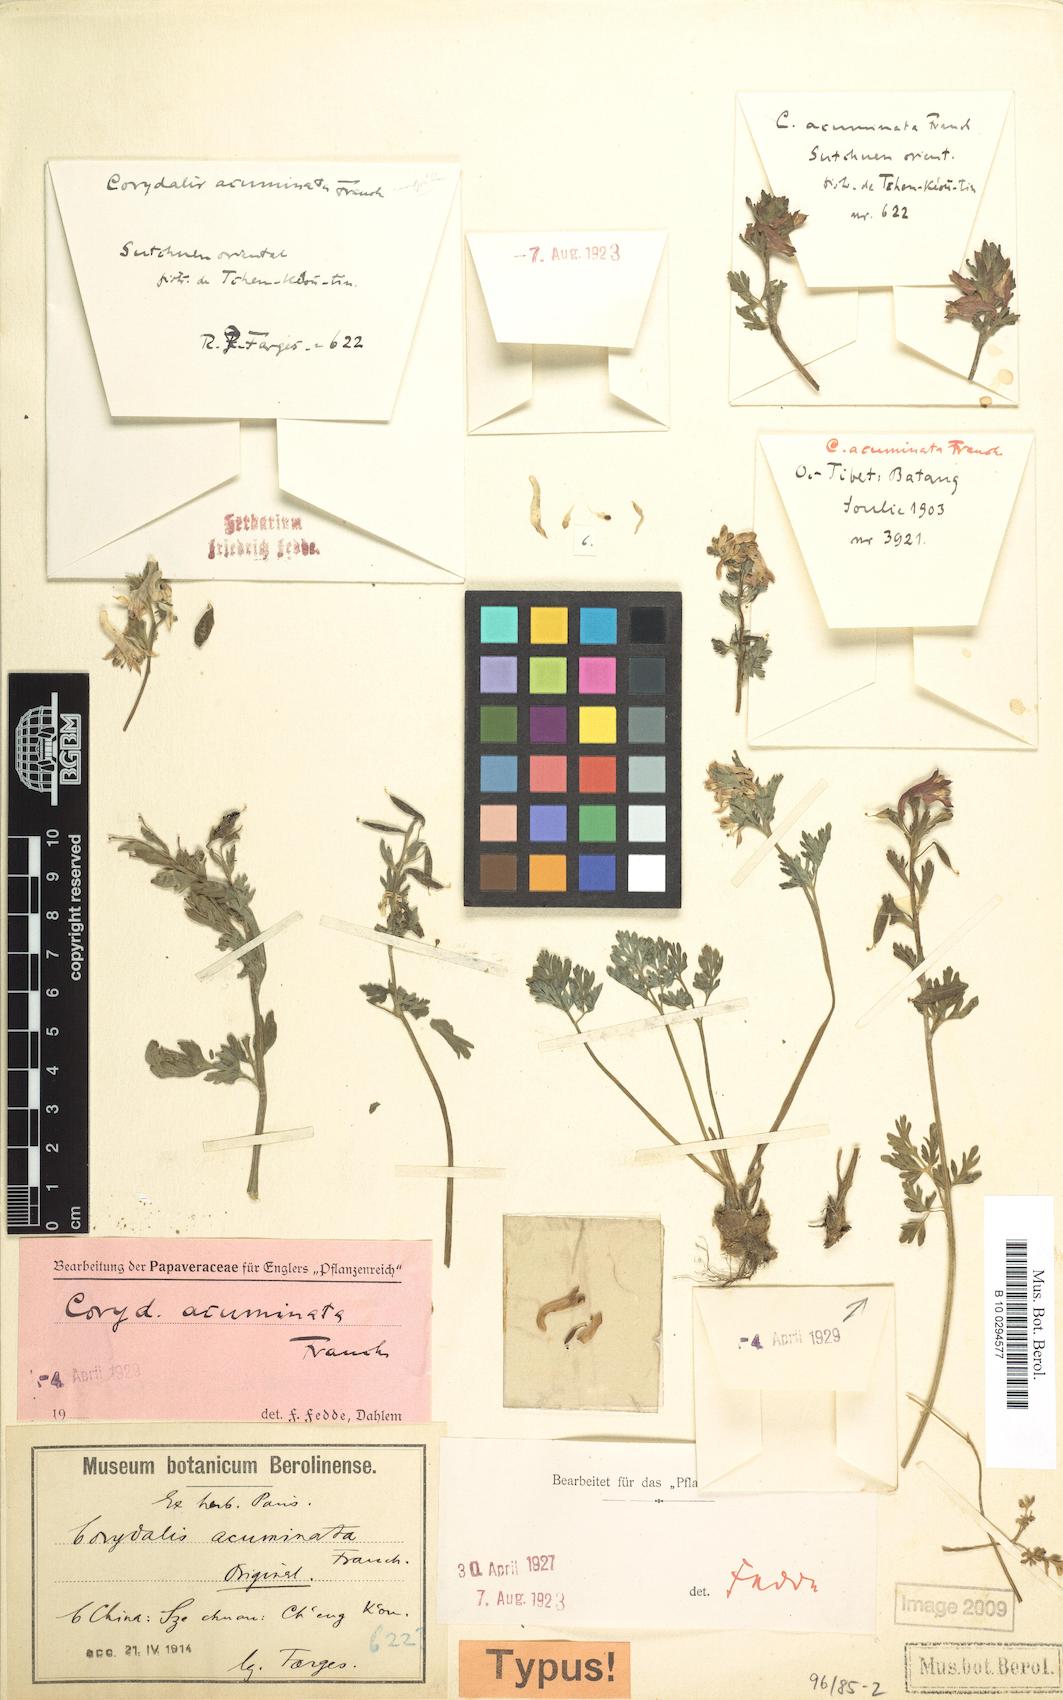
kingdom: Plantae
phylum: Tracheophyta
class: Magnoliopsida
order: Ranunculales
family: Papaveraceae
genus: Corydalis
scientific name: Corydalis acuminata
